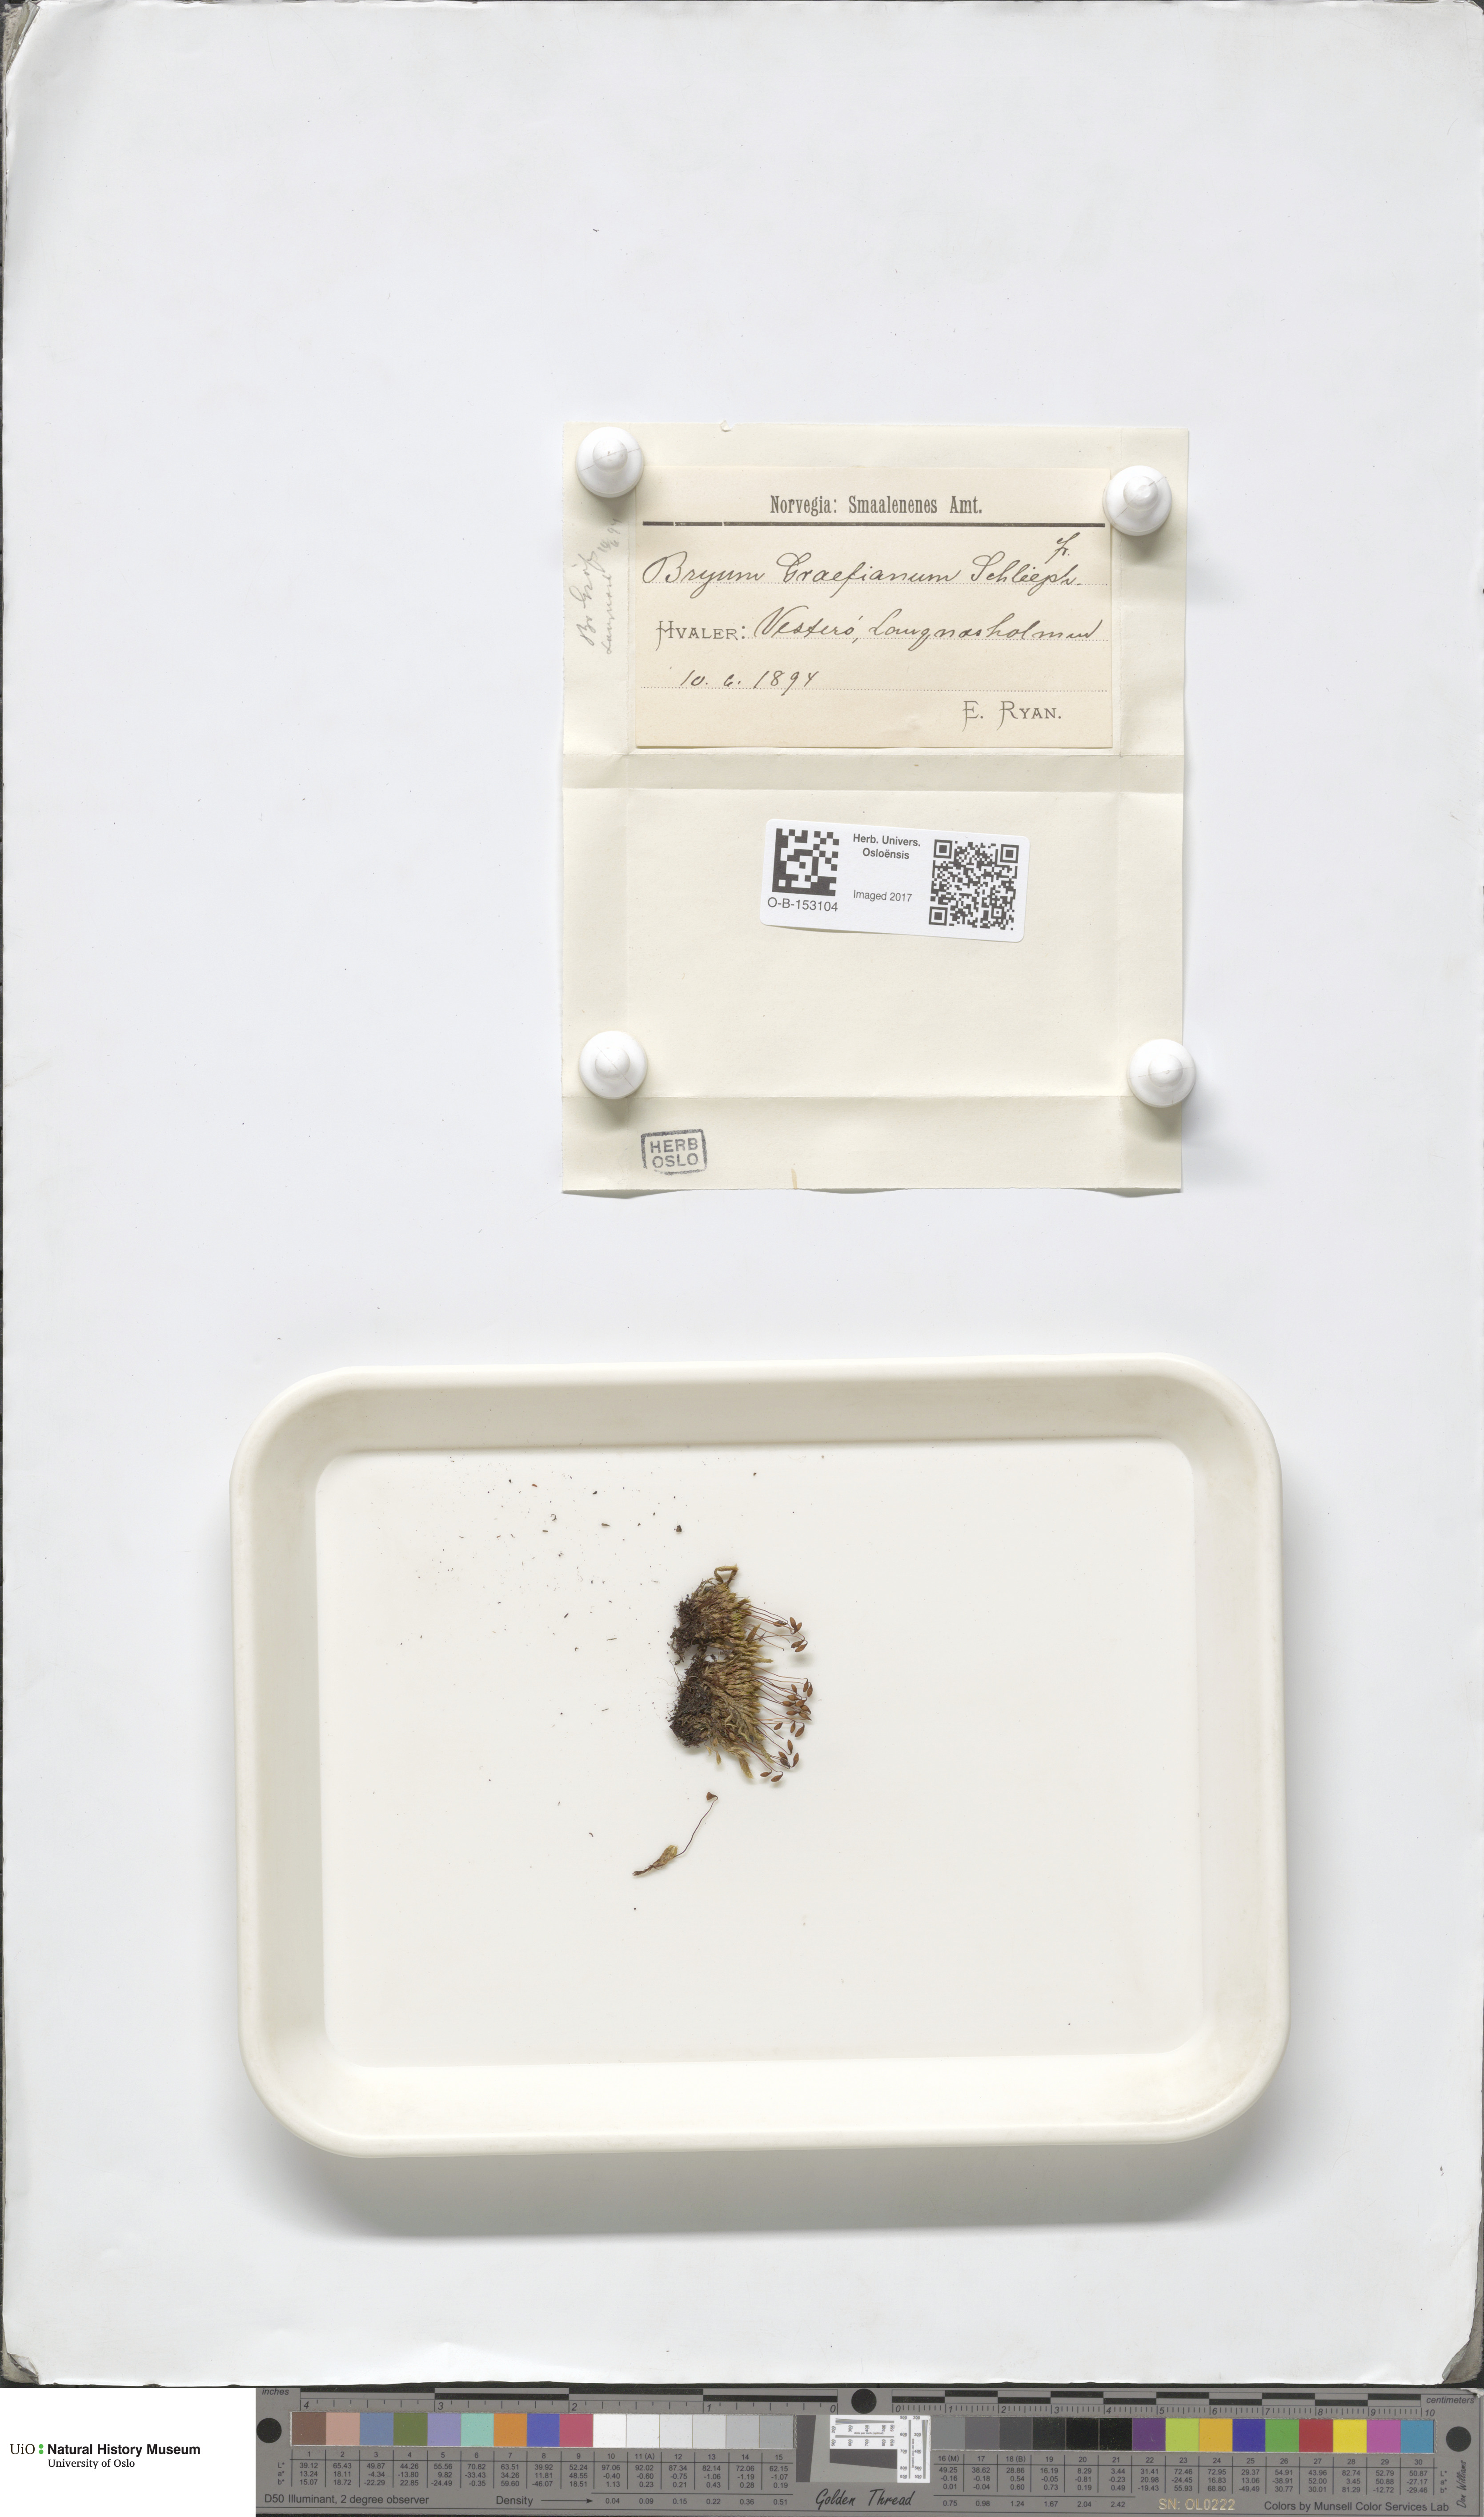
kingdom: Plantae
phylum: Bryophyta
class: Bryopsida
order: Bryales
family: Bryaceae
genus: Ptychostomum
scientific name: Ptychostomum inclinatum
